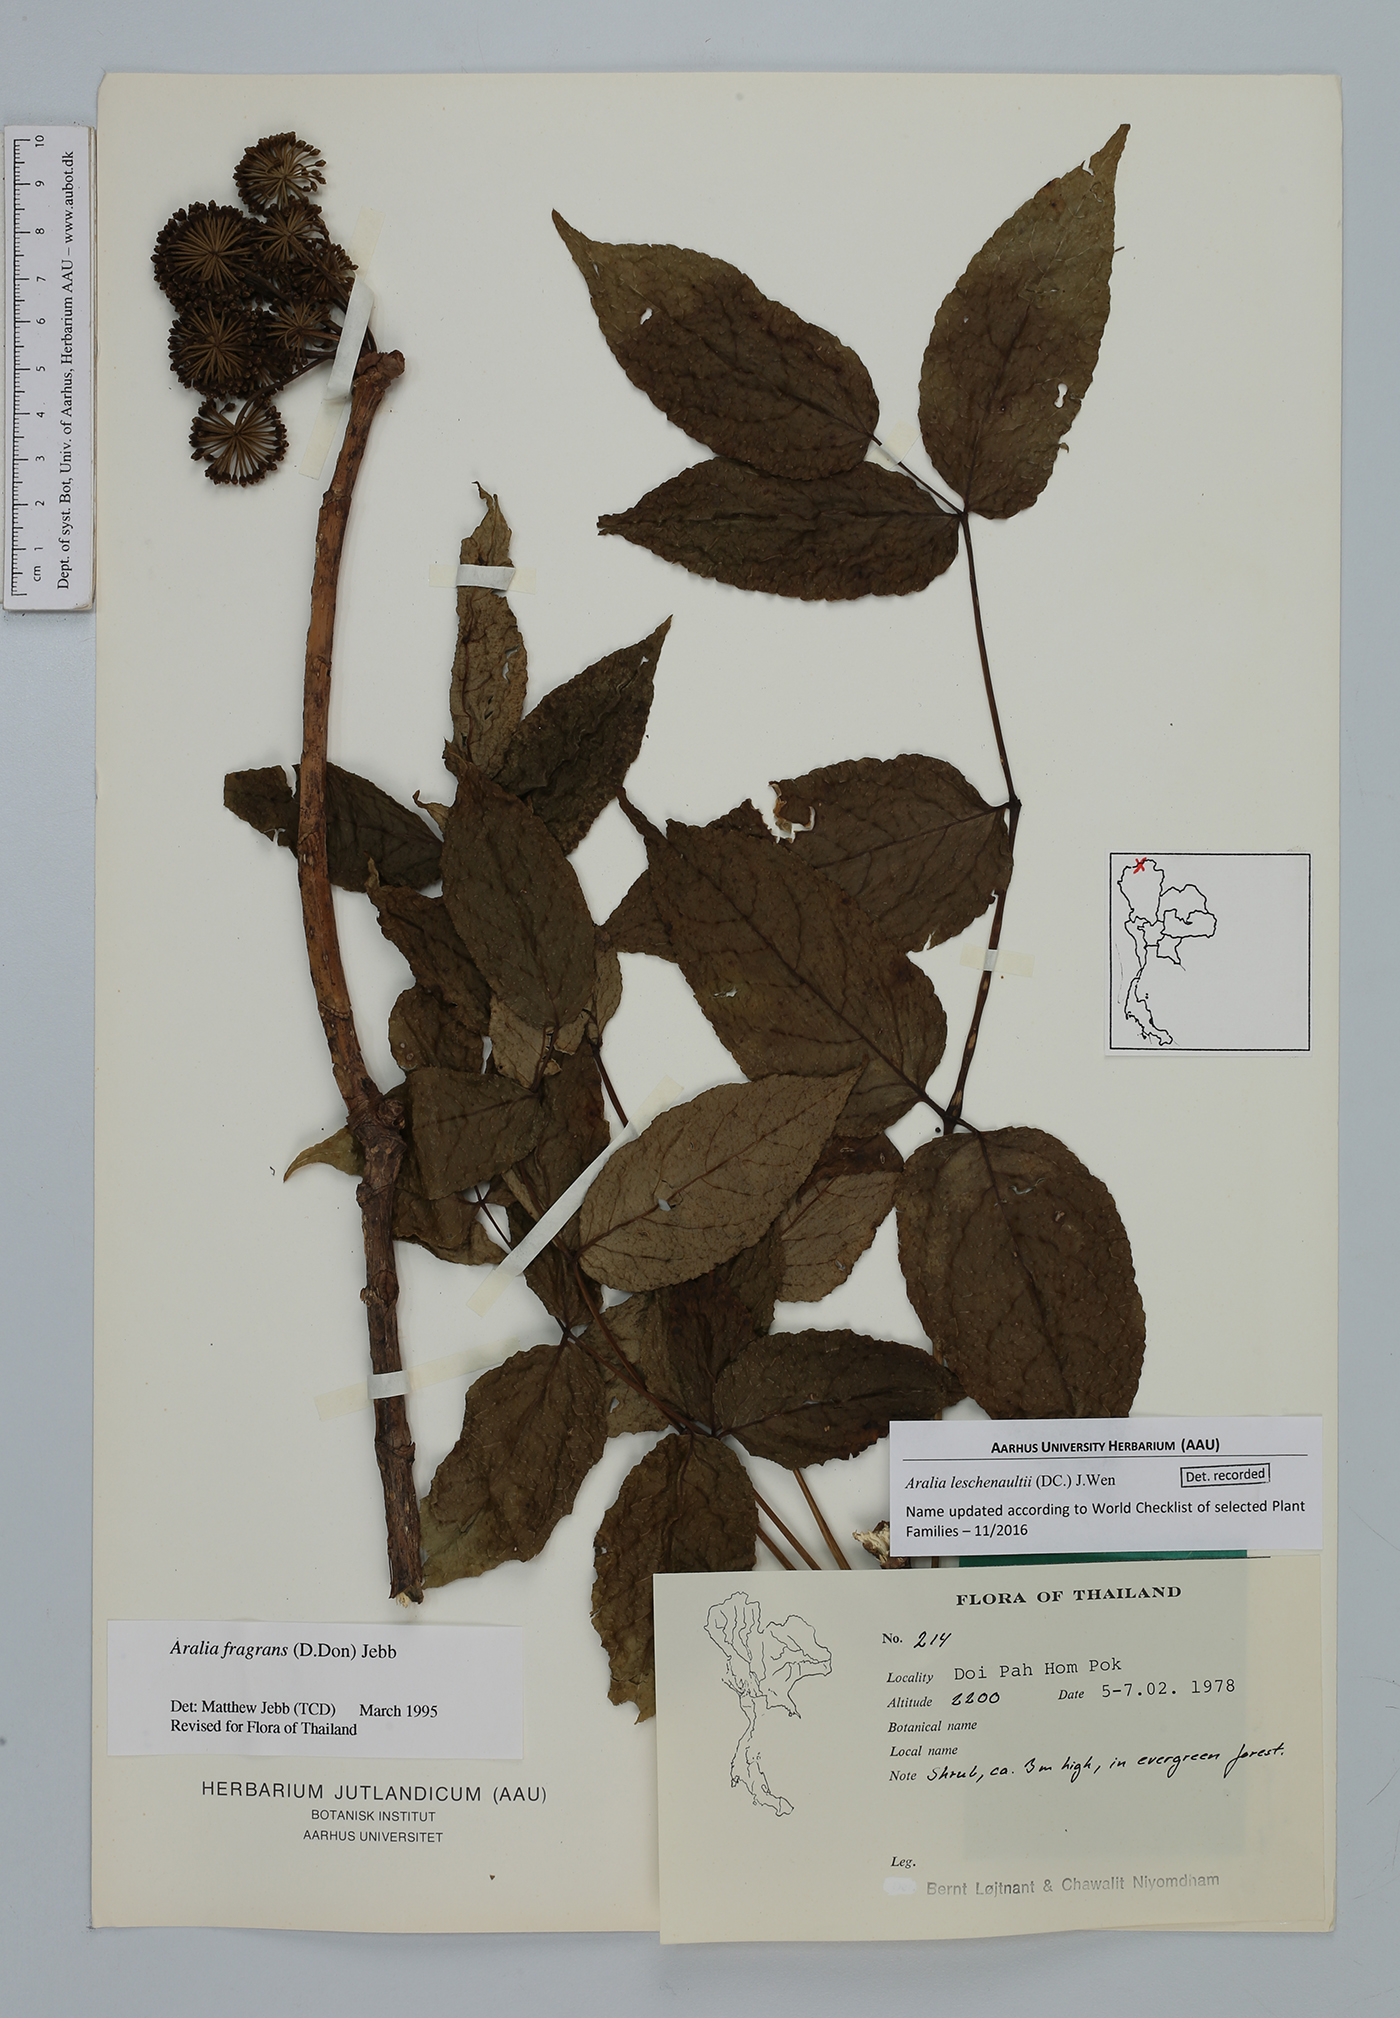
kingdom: Plantae
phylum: Tracheophyta
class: Magnoliopsida
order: Apiales
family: Araliaceae
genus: Aralia
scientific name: Aralia leschenaultii
